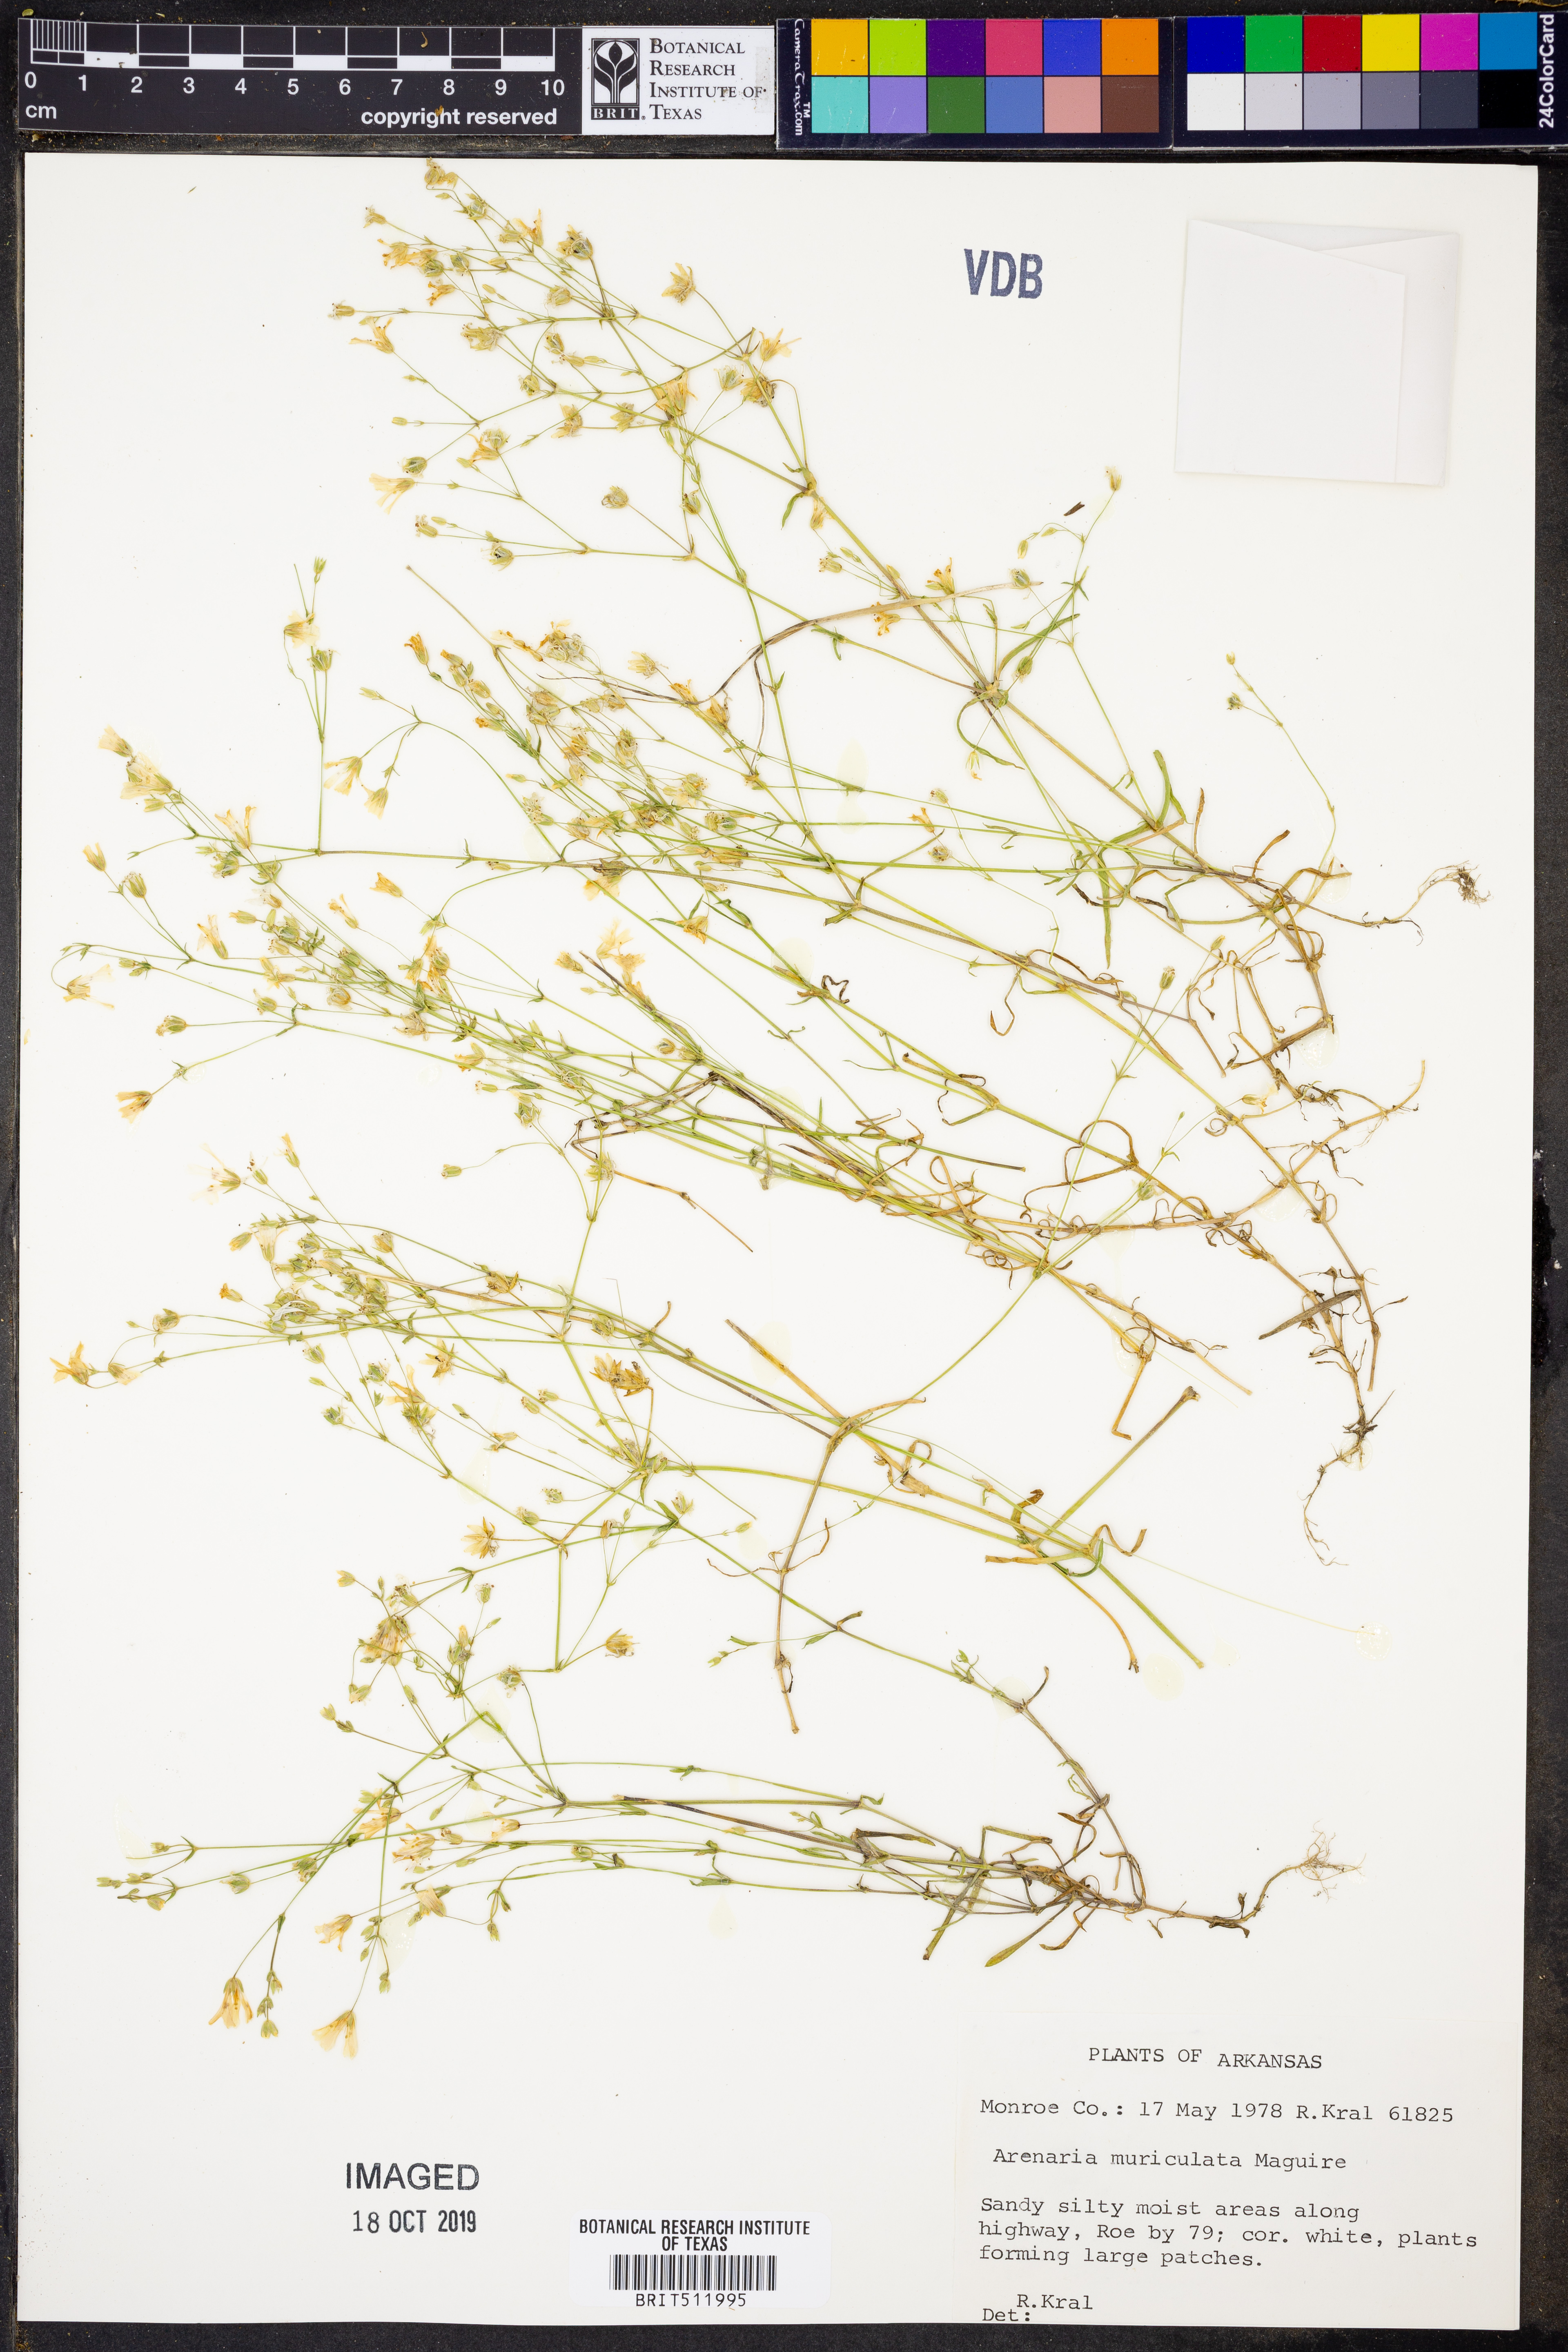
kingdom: Plantae
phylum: Tracheophyta
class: Magnoliopsida
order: Caryophyllales
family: Caryophyllaceae
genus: Mononeuria
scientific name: Mononeuria muscorum
